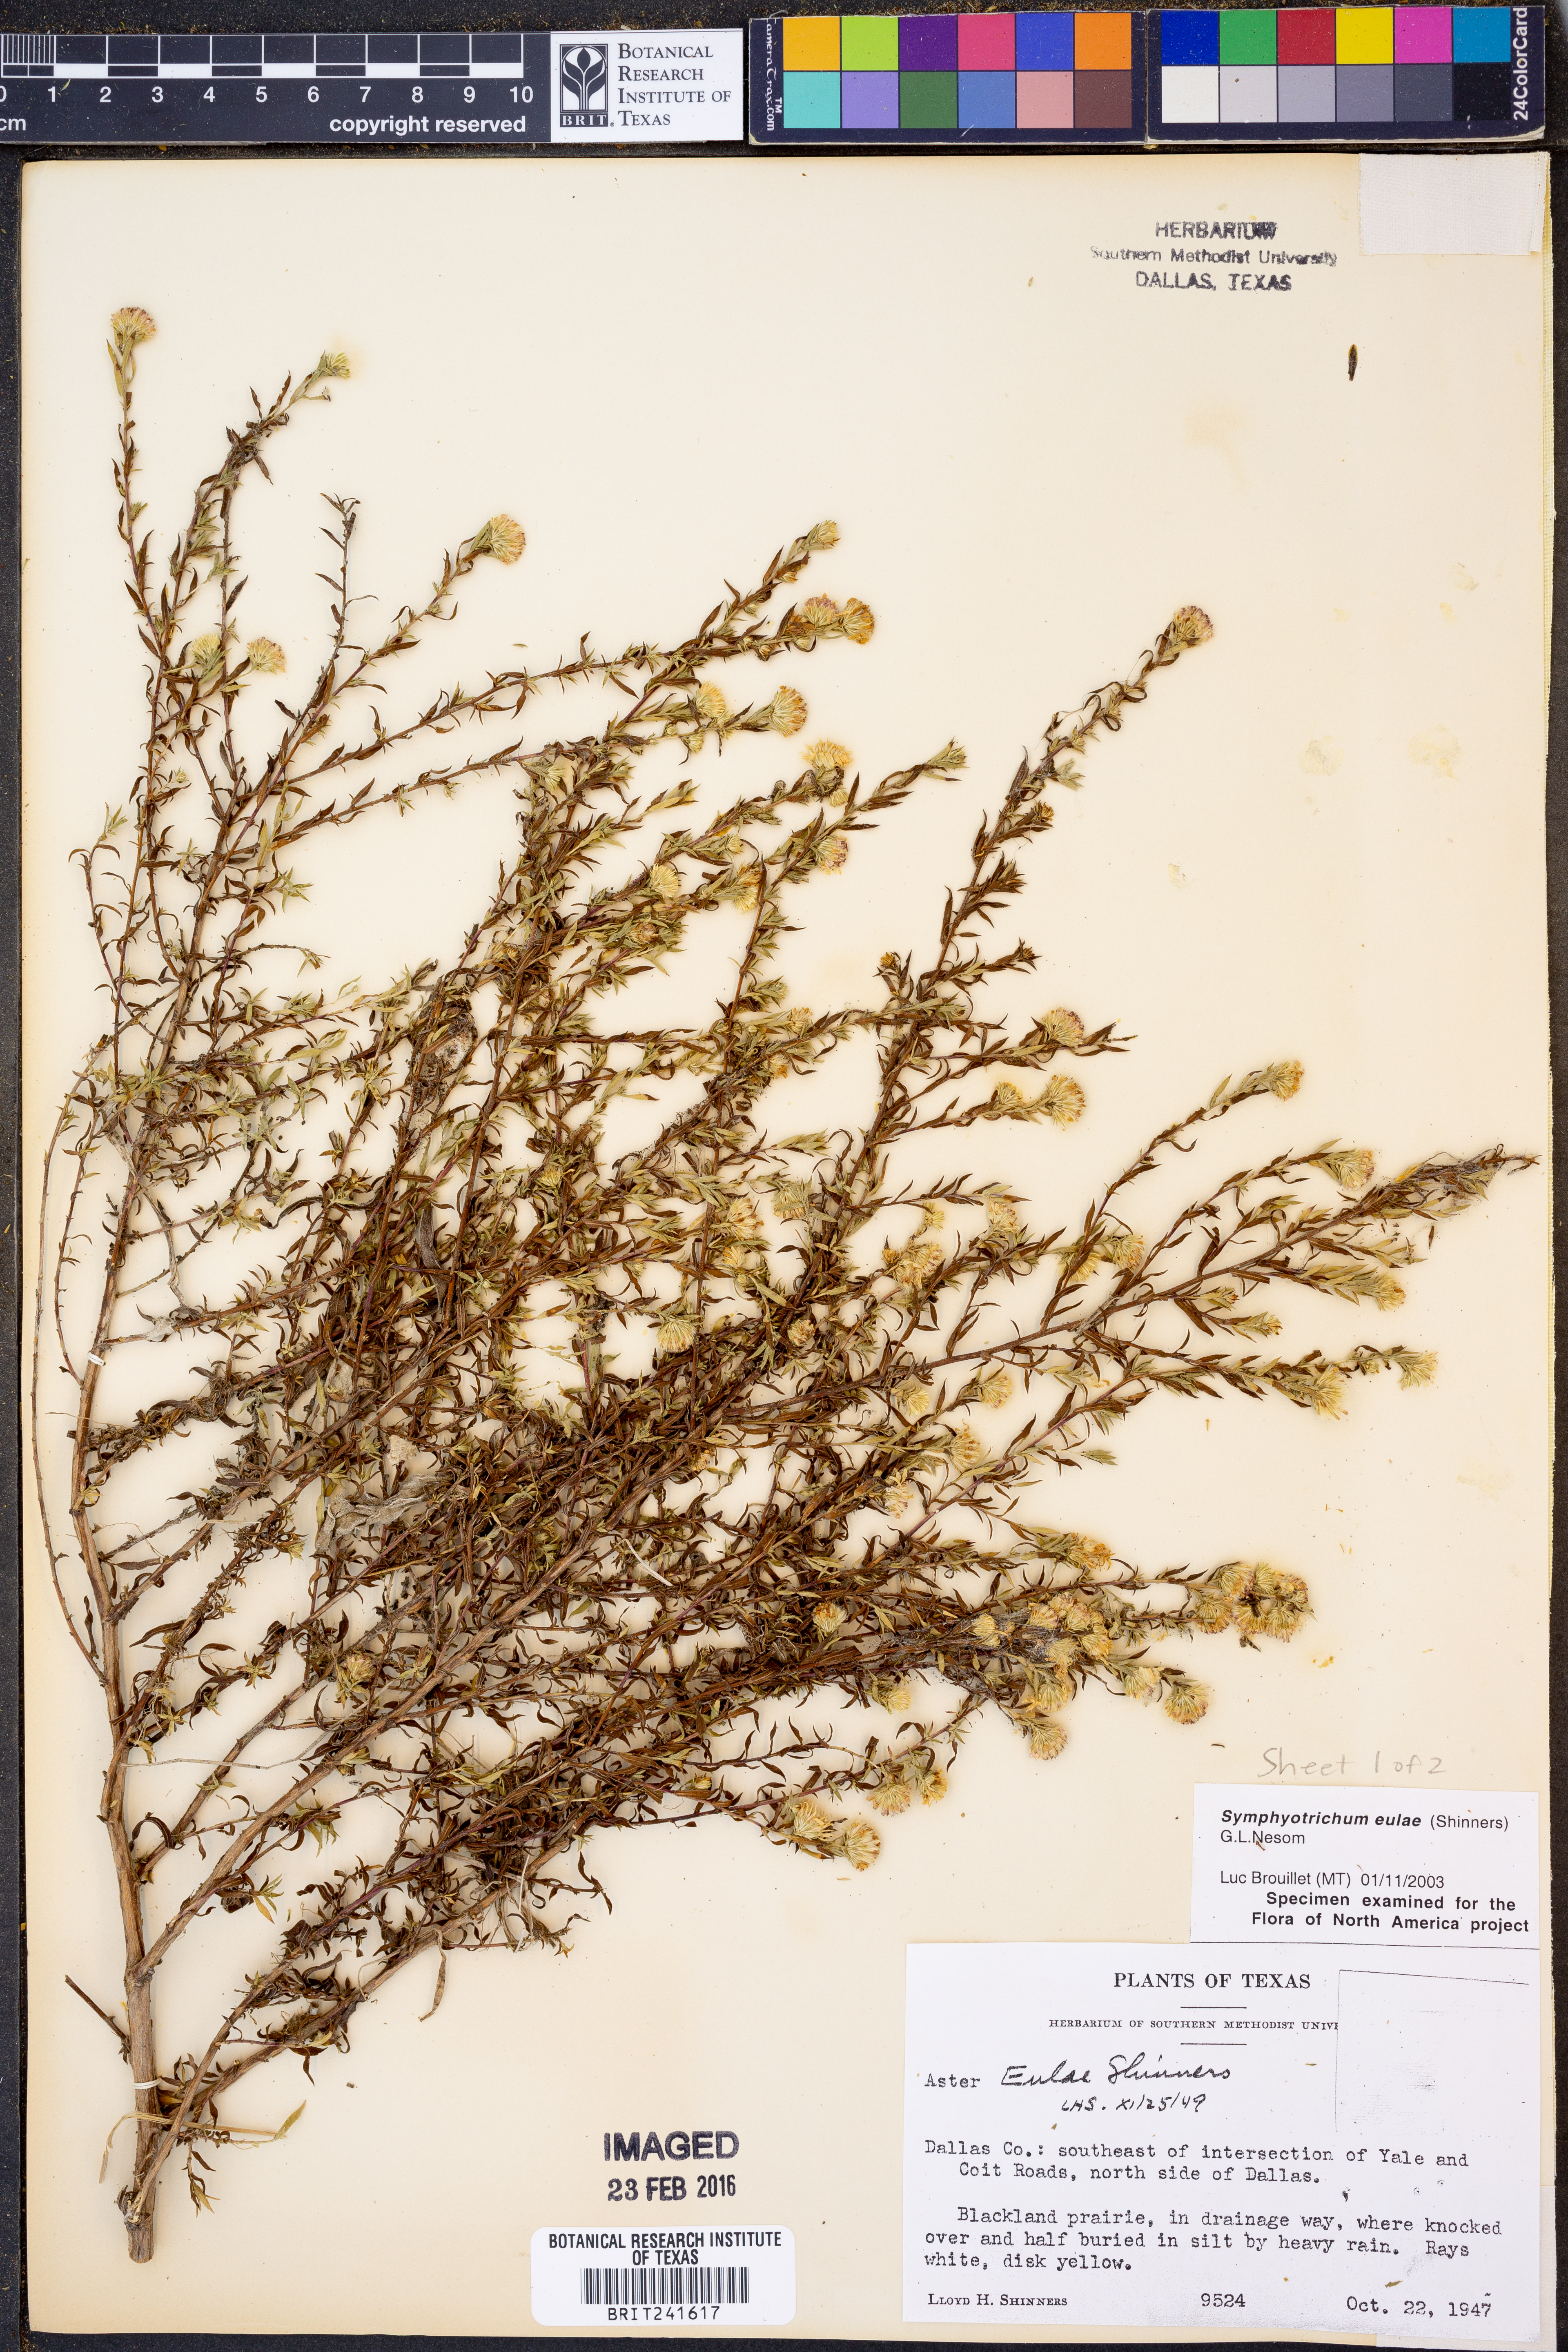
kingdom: Plantae
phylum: Tracheophyta
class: Magnoliopsida
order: Asterales
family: Asteraceae
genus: Symphyotrichum
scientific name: Symphyotrichum eulae
